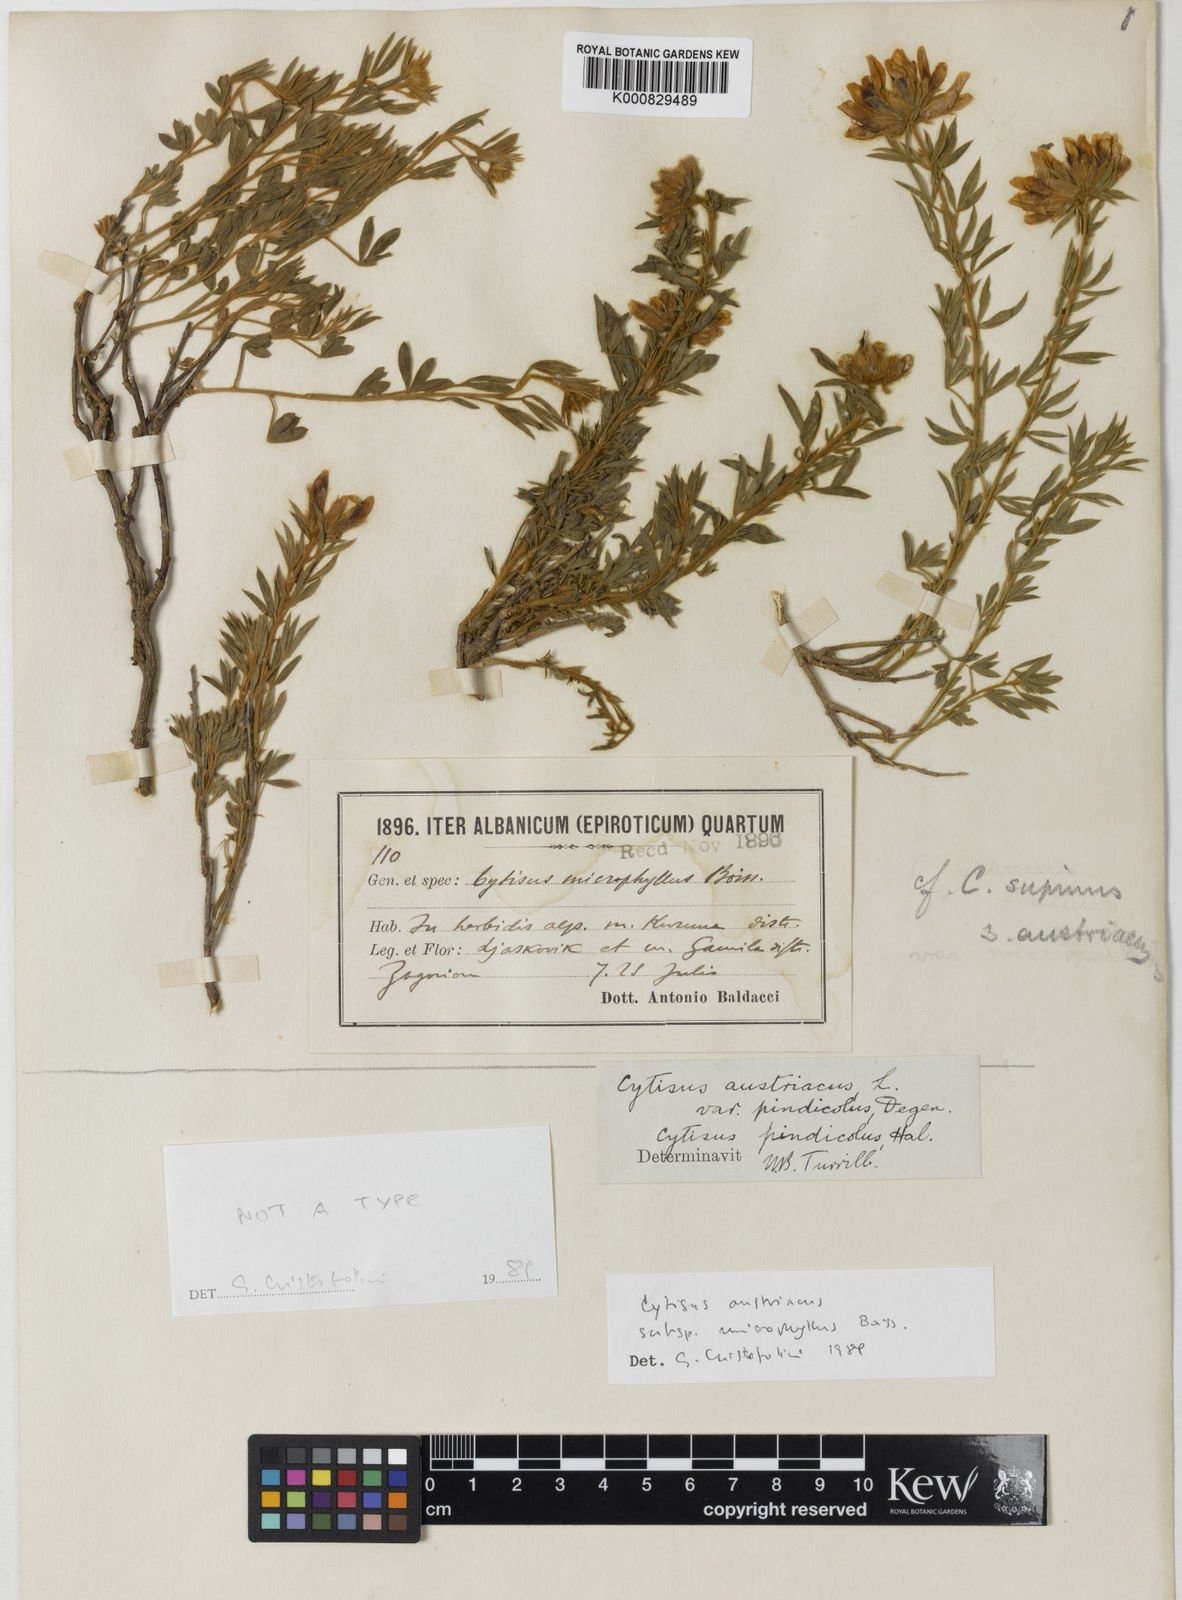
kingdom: Plantae
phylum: Tracheophyta
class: Magnoliopsida
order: Fabales
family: Fabaceae
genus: Cytisus
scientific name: Cytisus
